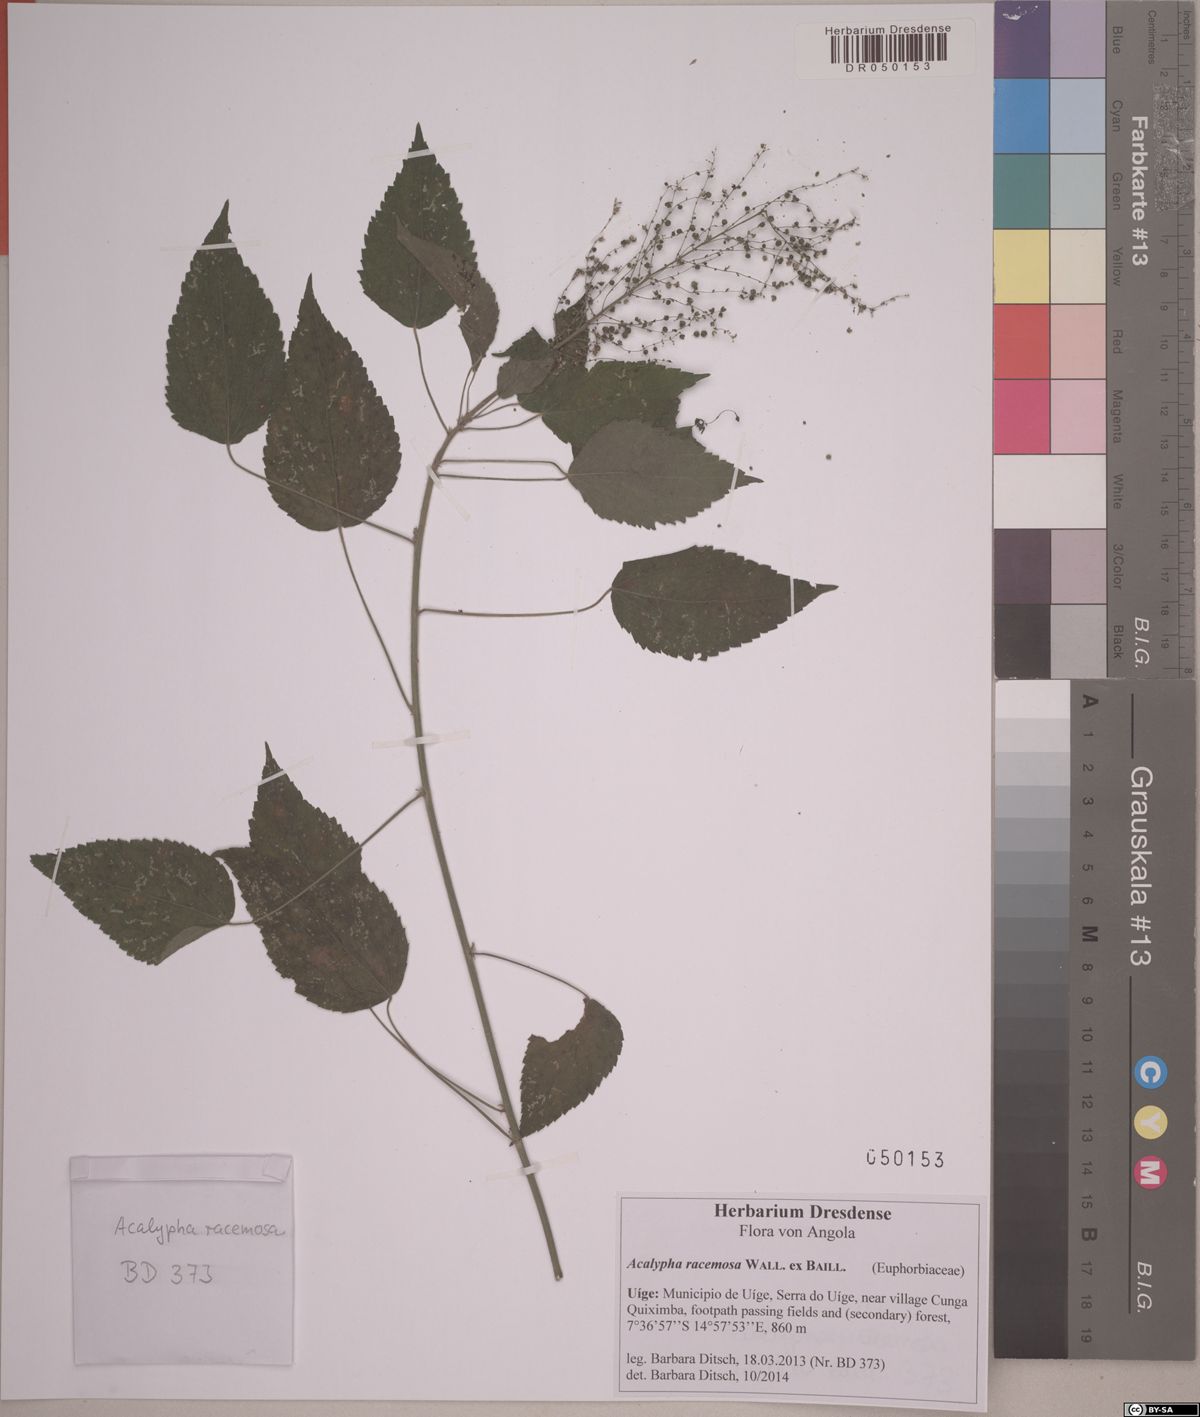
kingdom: Plantae
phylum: Tracheophyta
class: Magnoliopsida
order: Malpighiales
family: Euphorbiaceae
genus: Acalypha
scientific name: Acalypha paniculata
